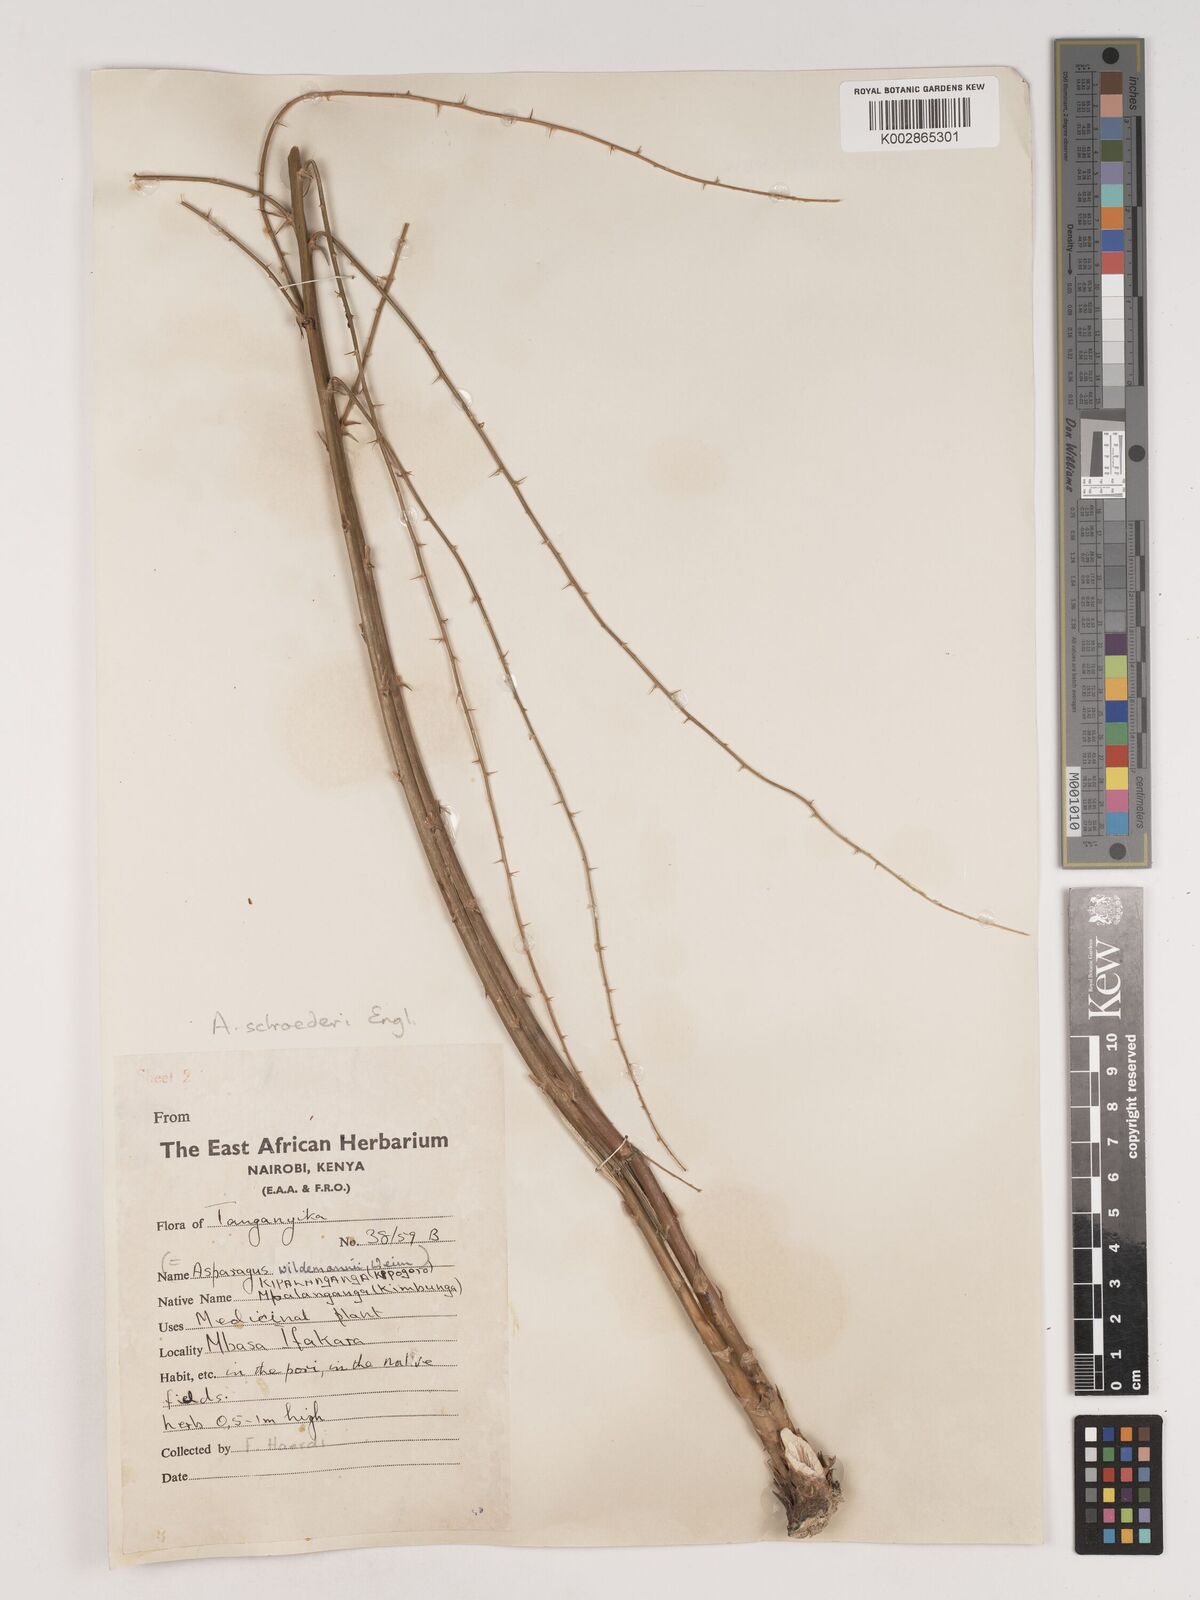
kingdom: Plantae
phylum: Tracheophyta
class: Liliopsida
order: Asparagales
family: Asparagaceae
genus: Asparagus
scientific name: Asparagus schroederi
